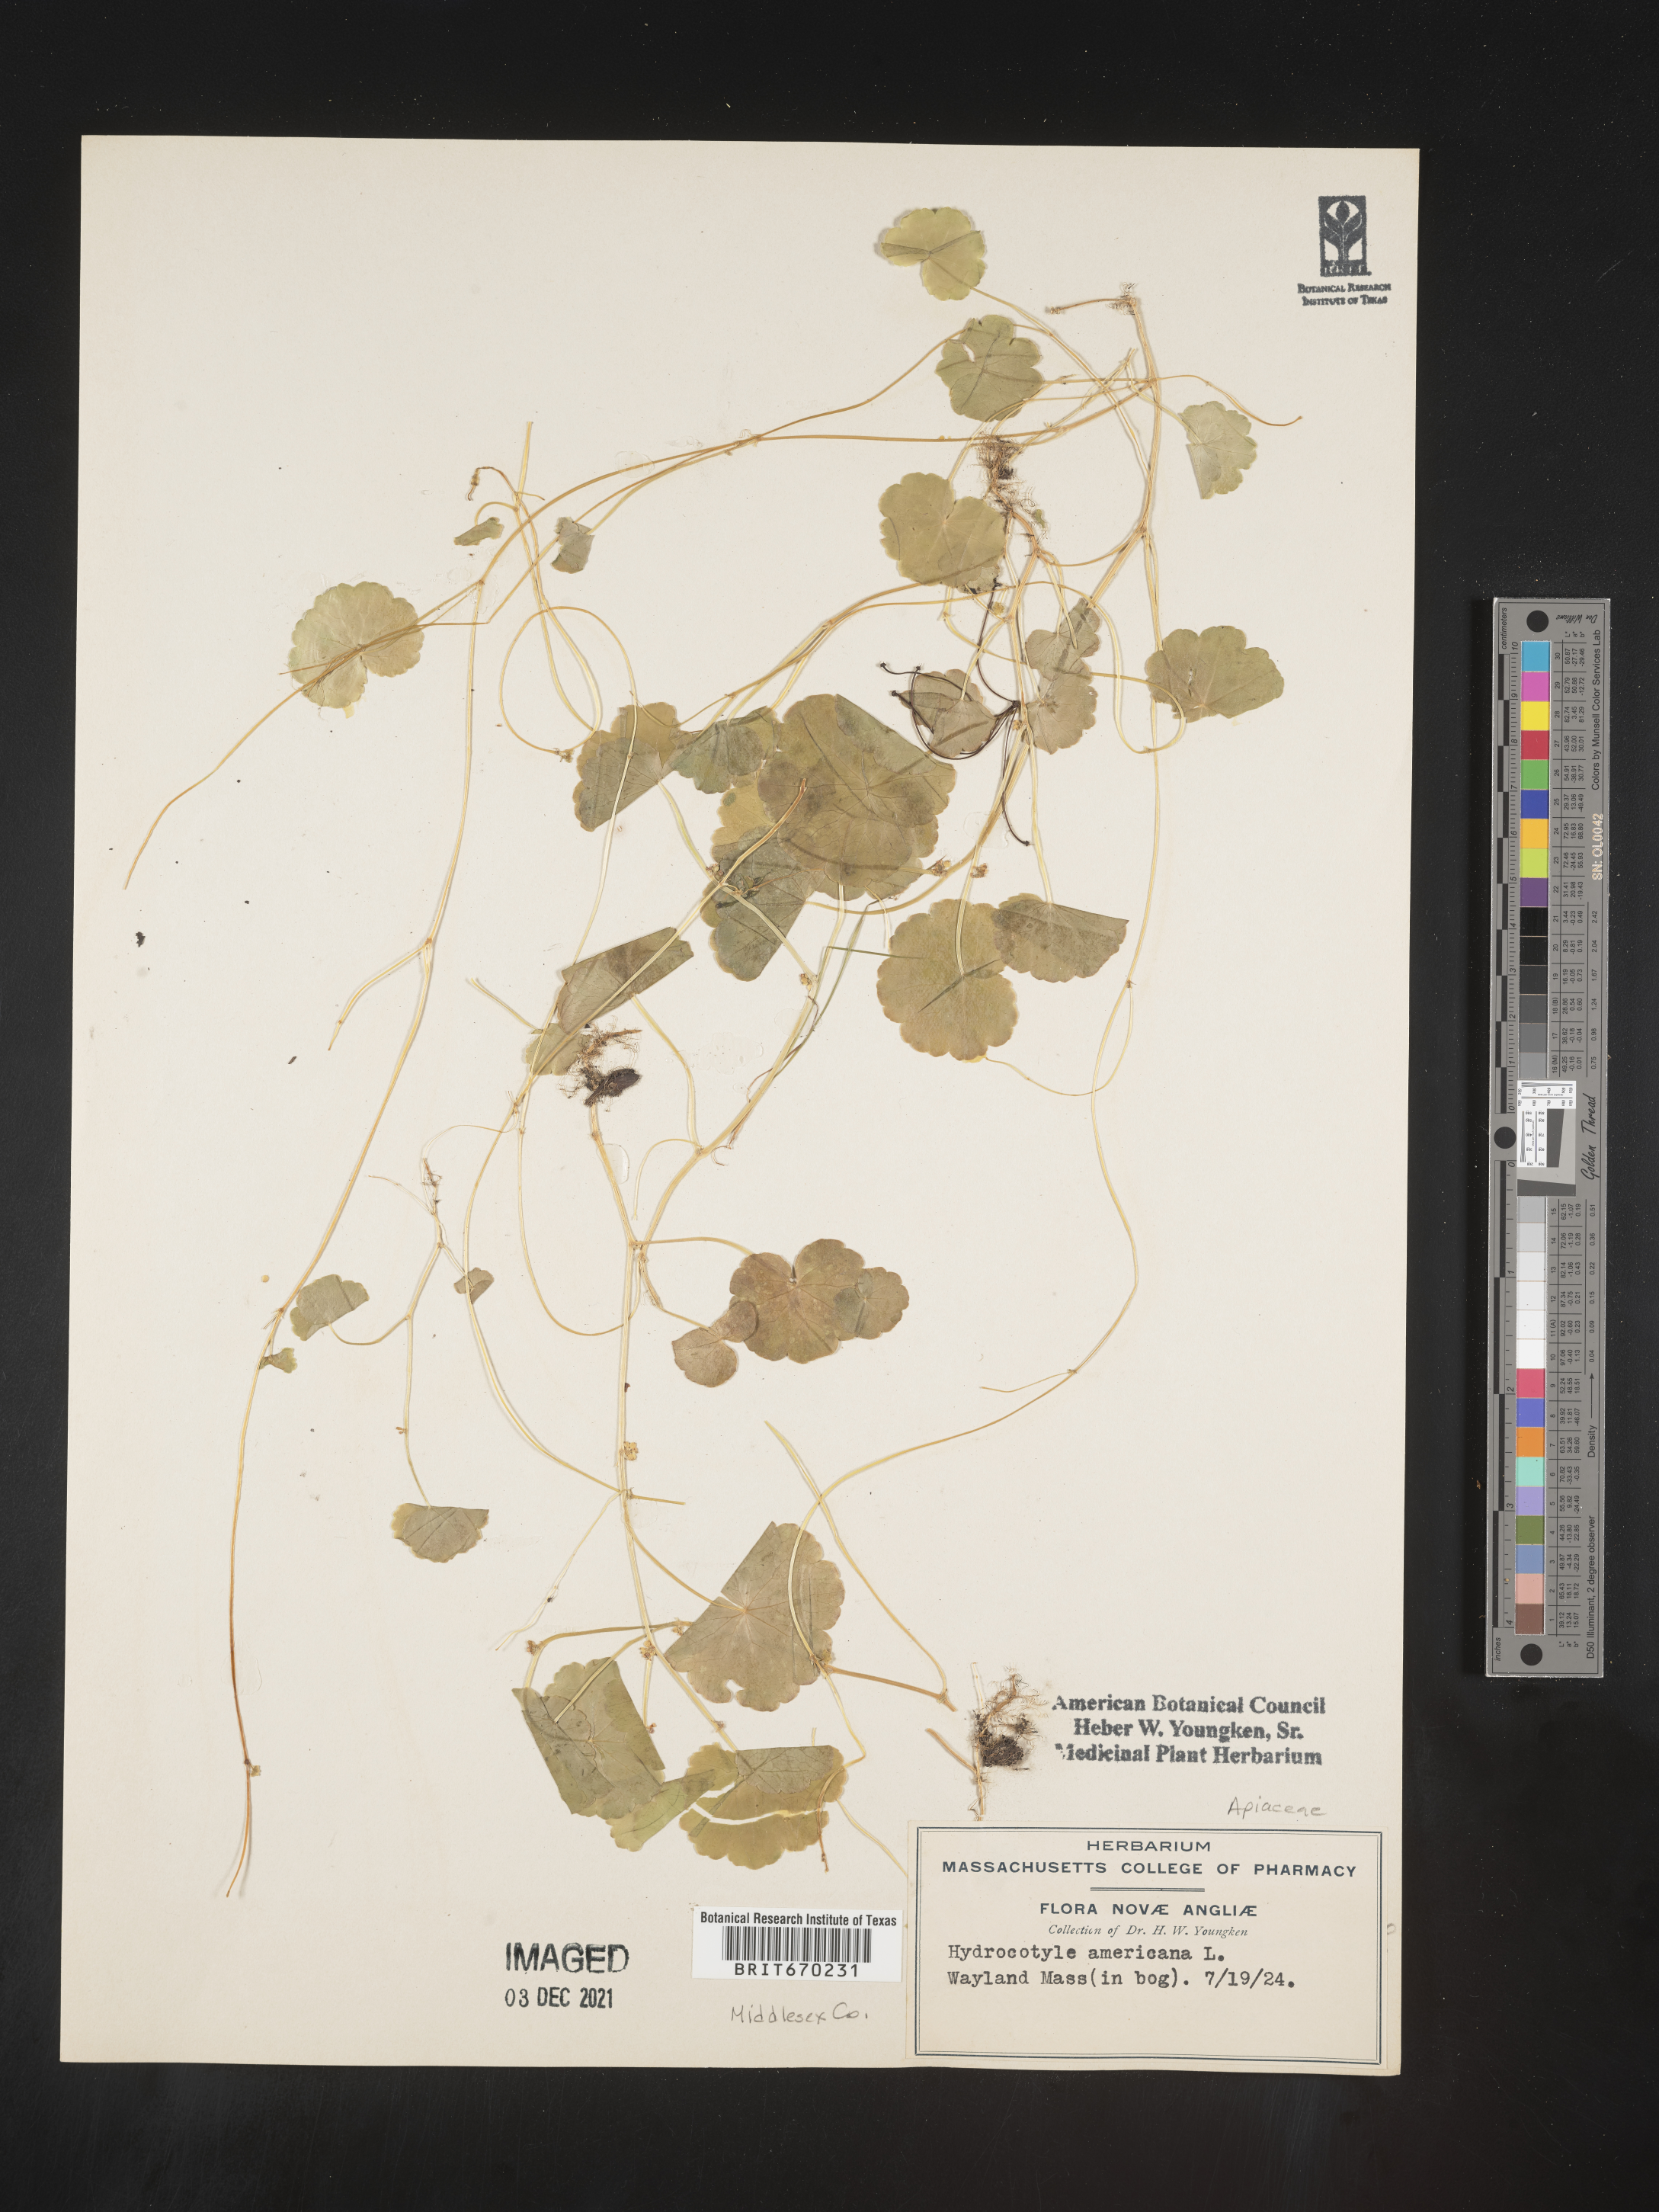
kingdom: Plantae
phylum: Tracheophyta
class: Magnoliopsida
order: Apiales
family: Araliaceae
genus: Hydrocotyle
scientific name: Hydrocotyle
